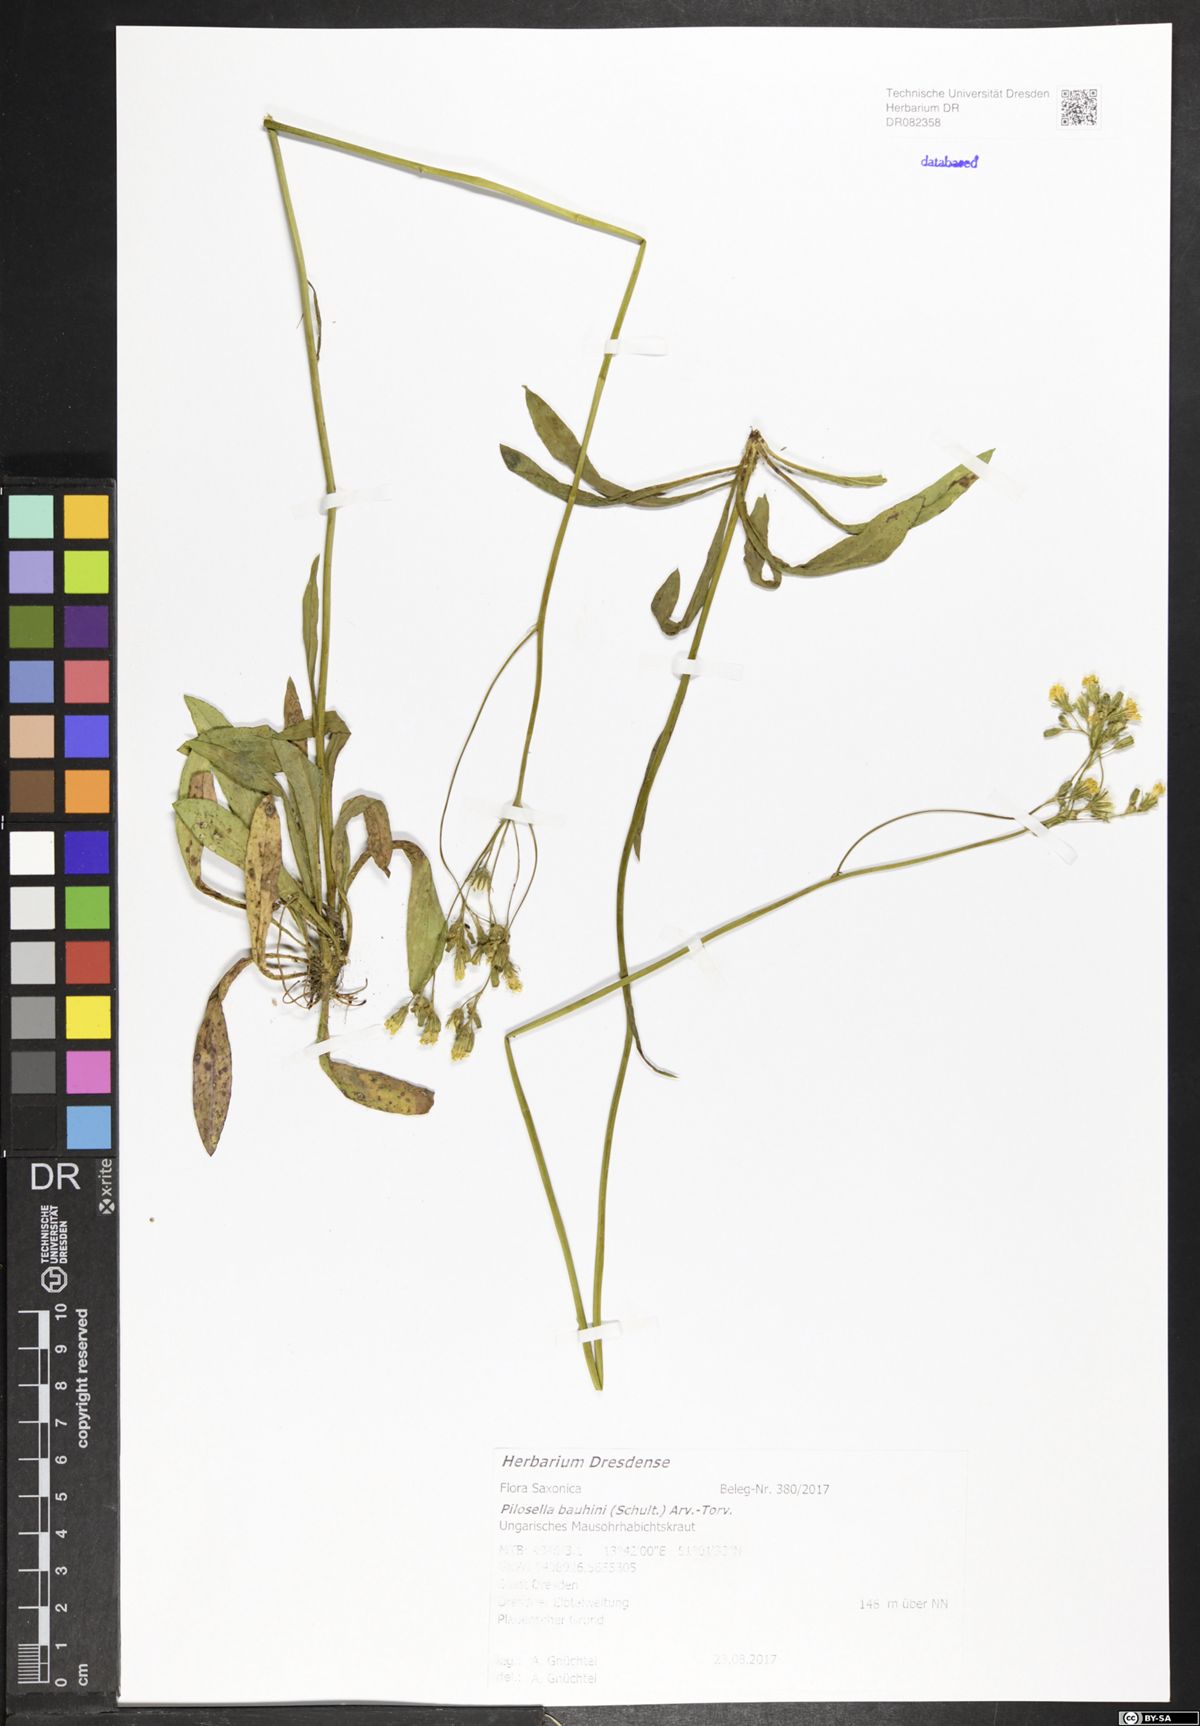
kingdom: Plantae
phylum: Tracheophyta
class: Magnoliopsida
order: Asterales
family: Asteraceae
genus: Pilosella
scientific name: Pilosella bauhini
